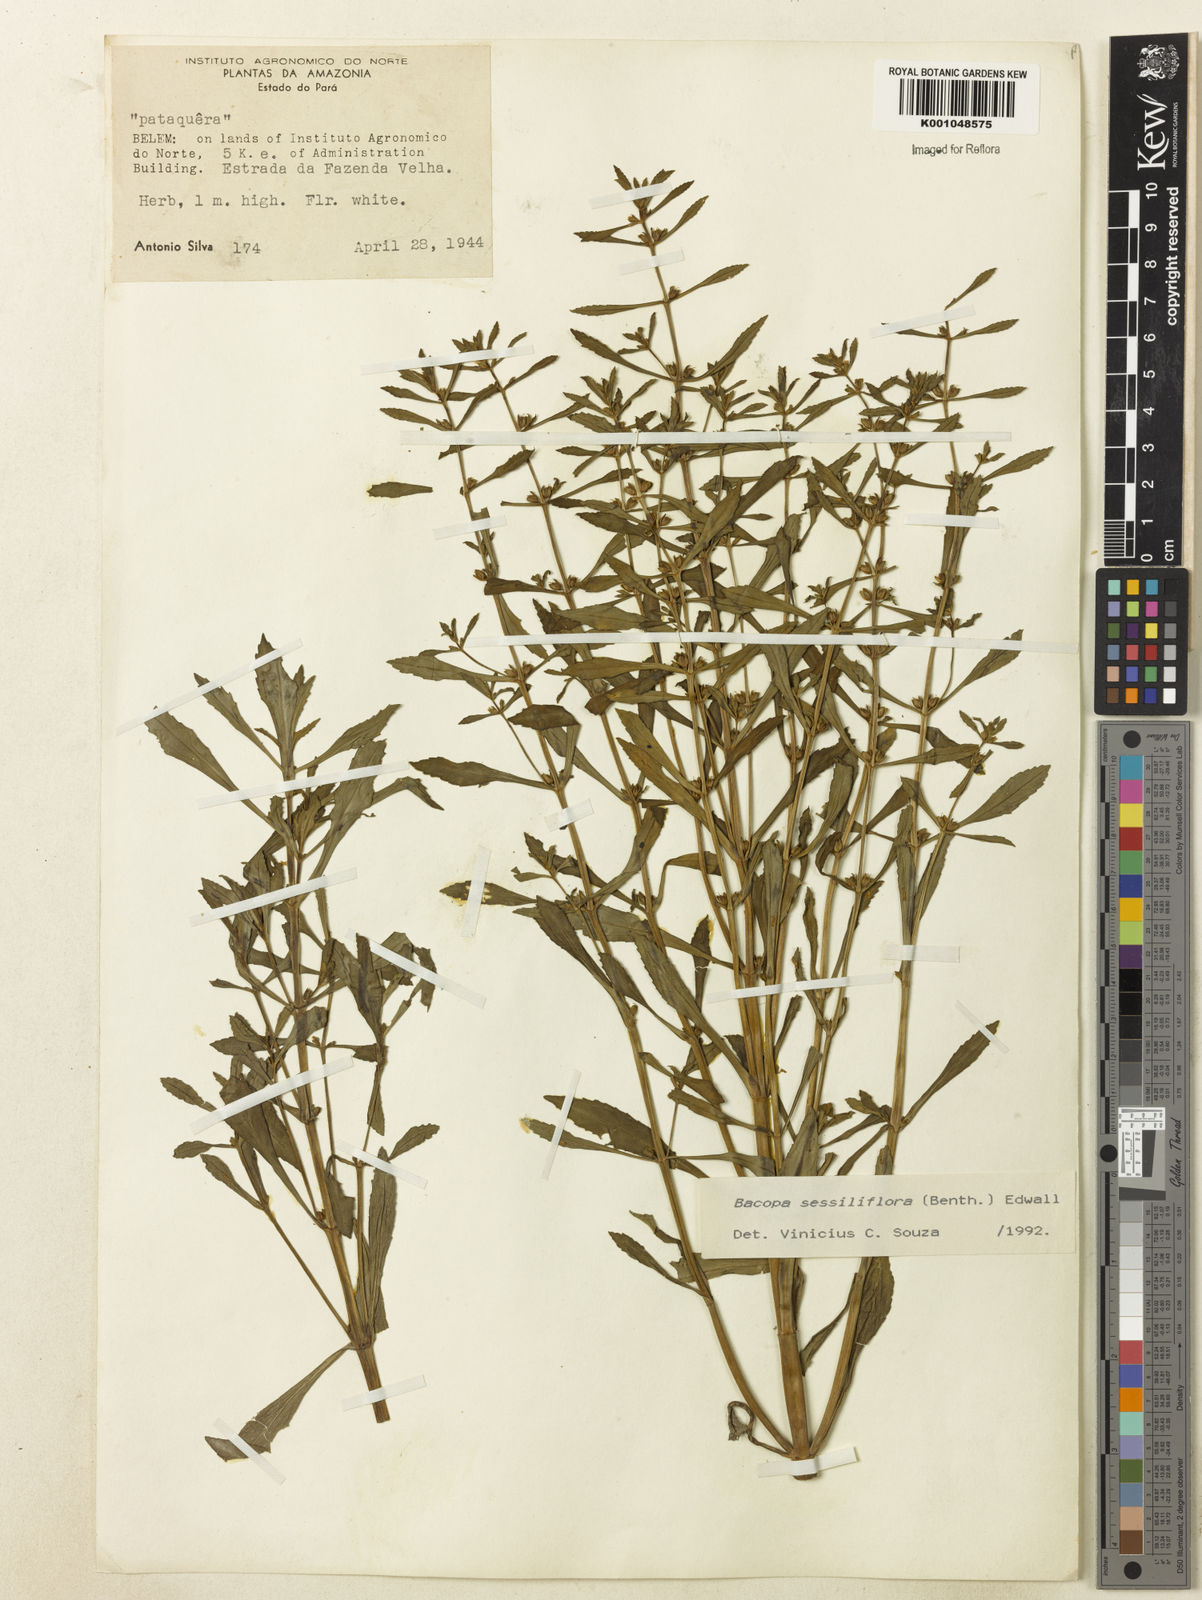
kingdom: Plantae
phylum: Tracheophyta
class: Magnoliopsida
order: Lamiales
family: Plantaginaceae
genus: Bacopa
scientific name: Bacopa sessiliflora
